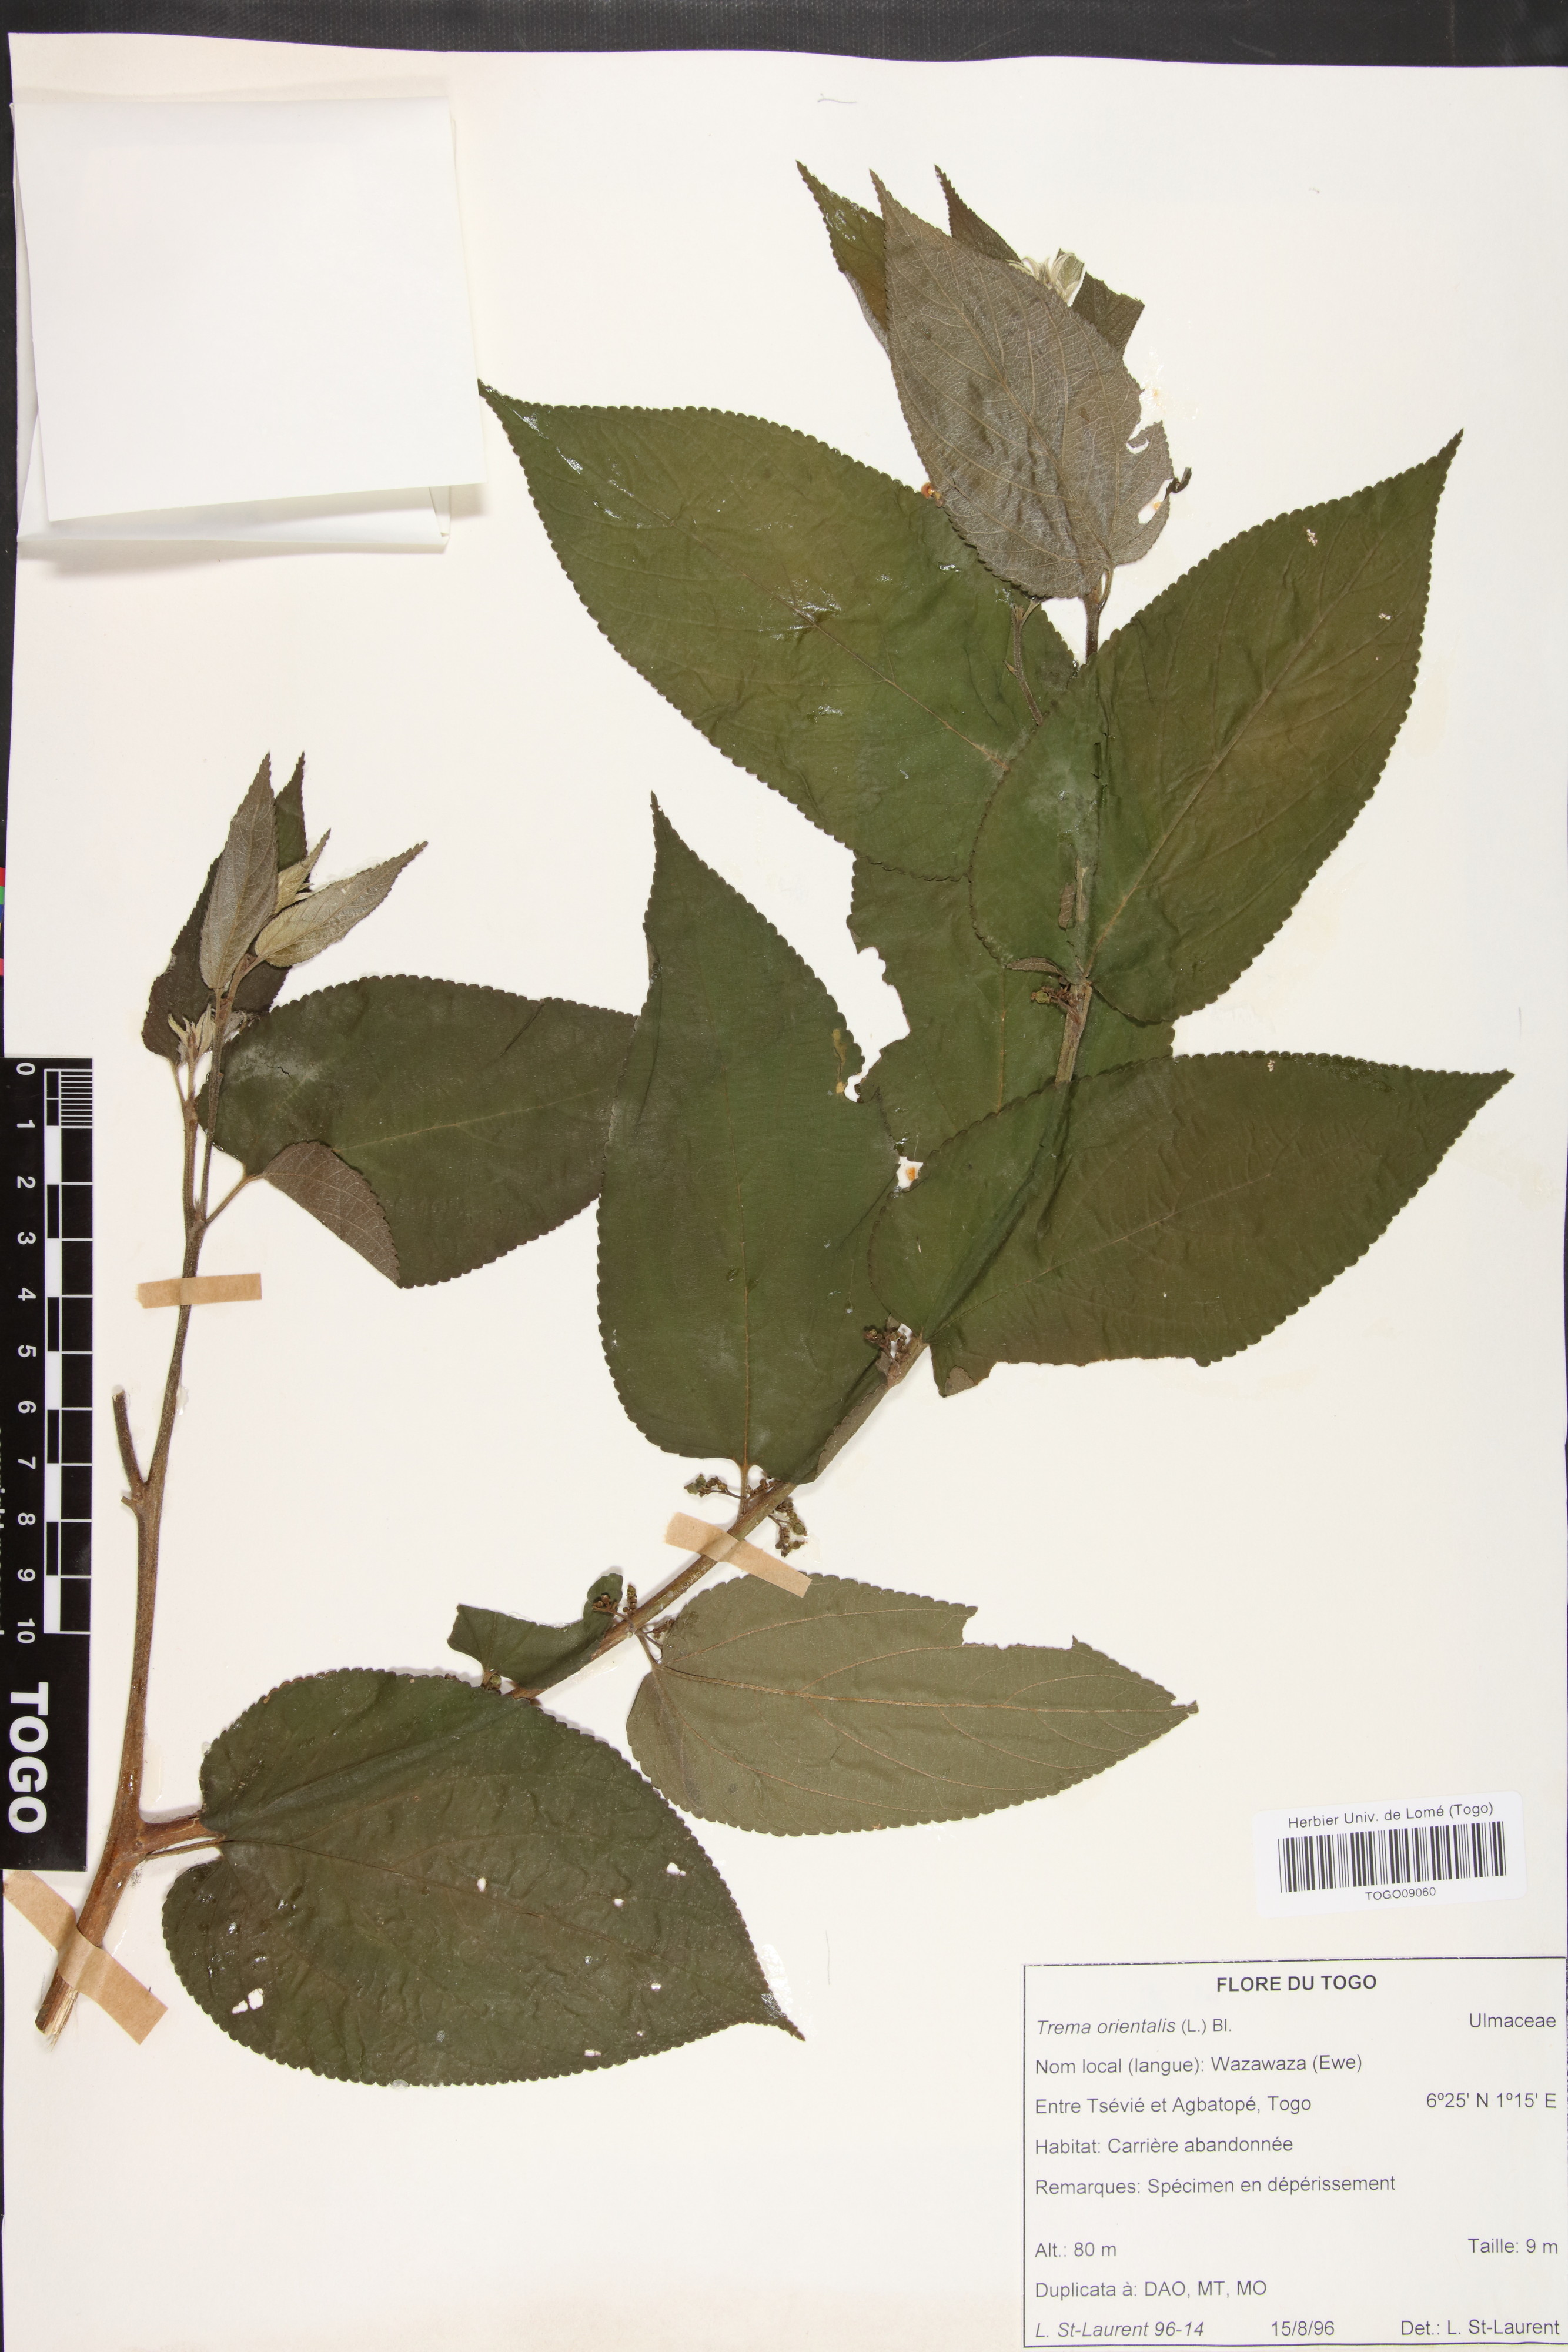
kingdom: Plantae
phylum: Tracheophyta
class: Magnoliopsida
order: Rosales
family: Cannabaceae
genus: Trema
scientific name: Trema orientale
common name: Indian charcoal tree
